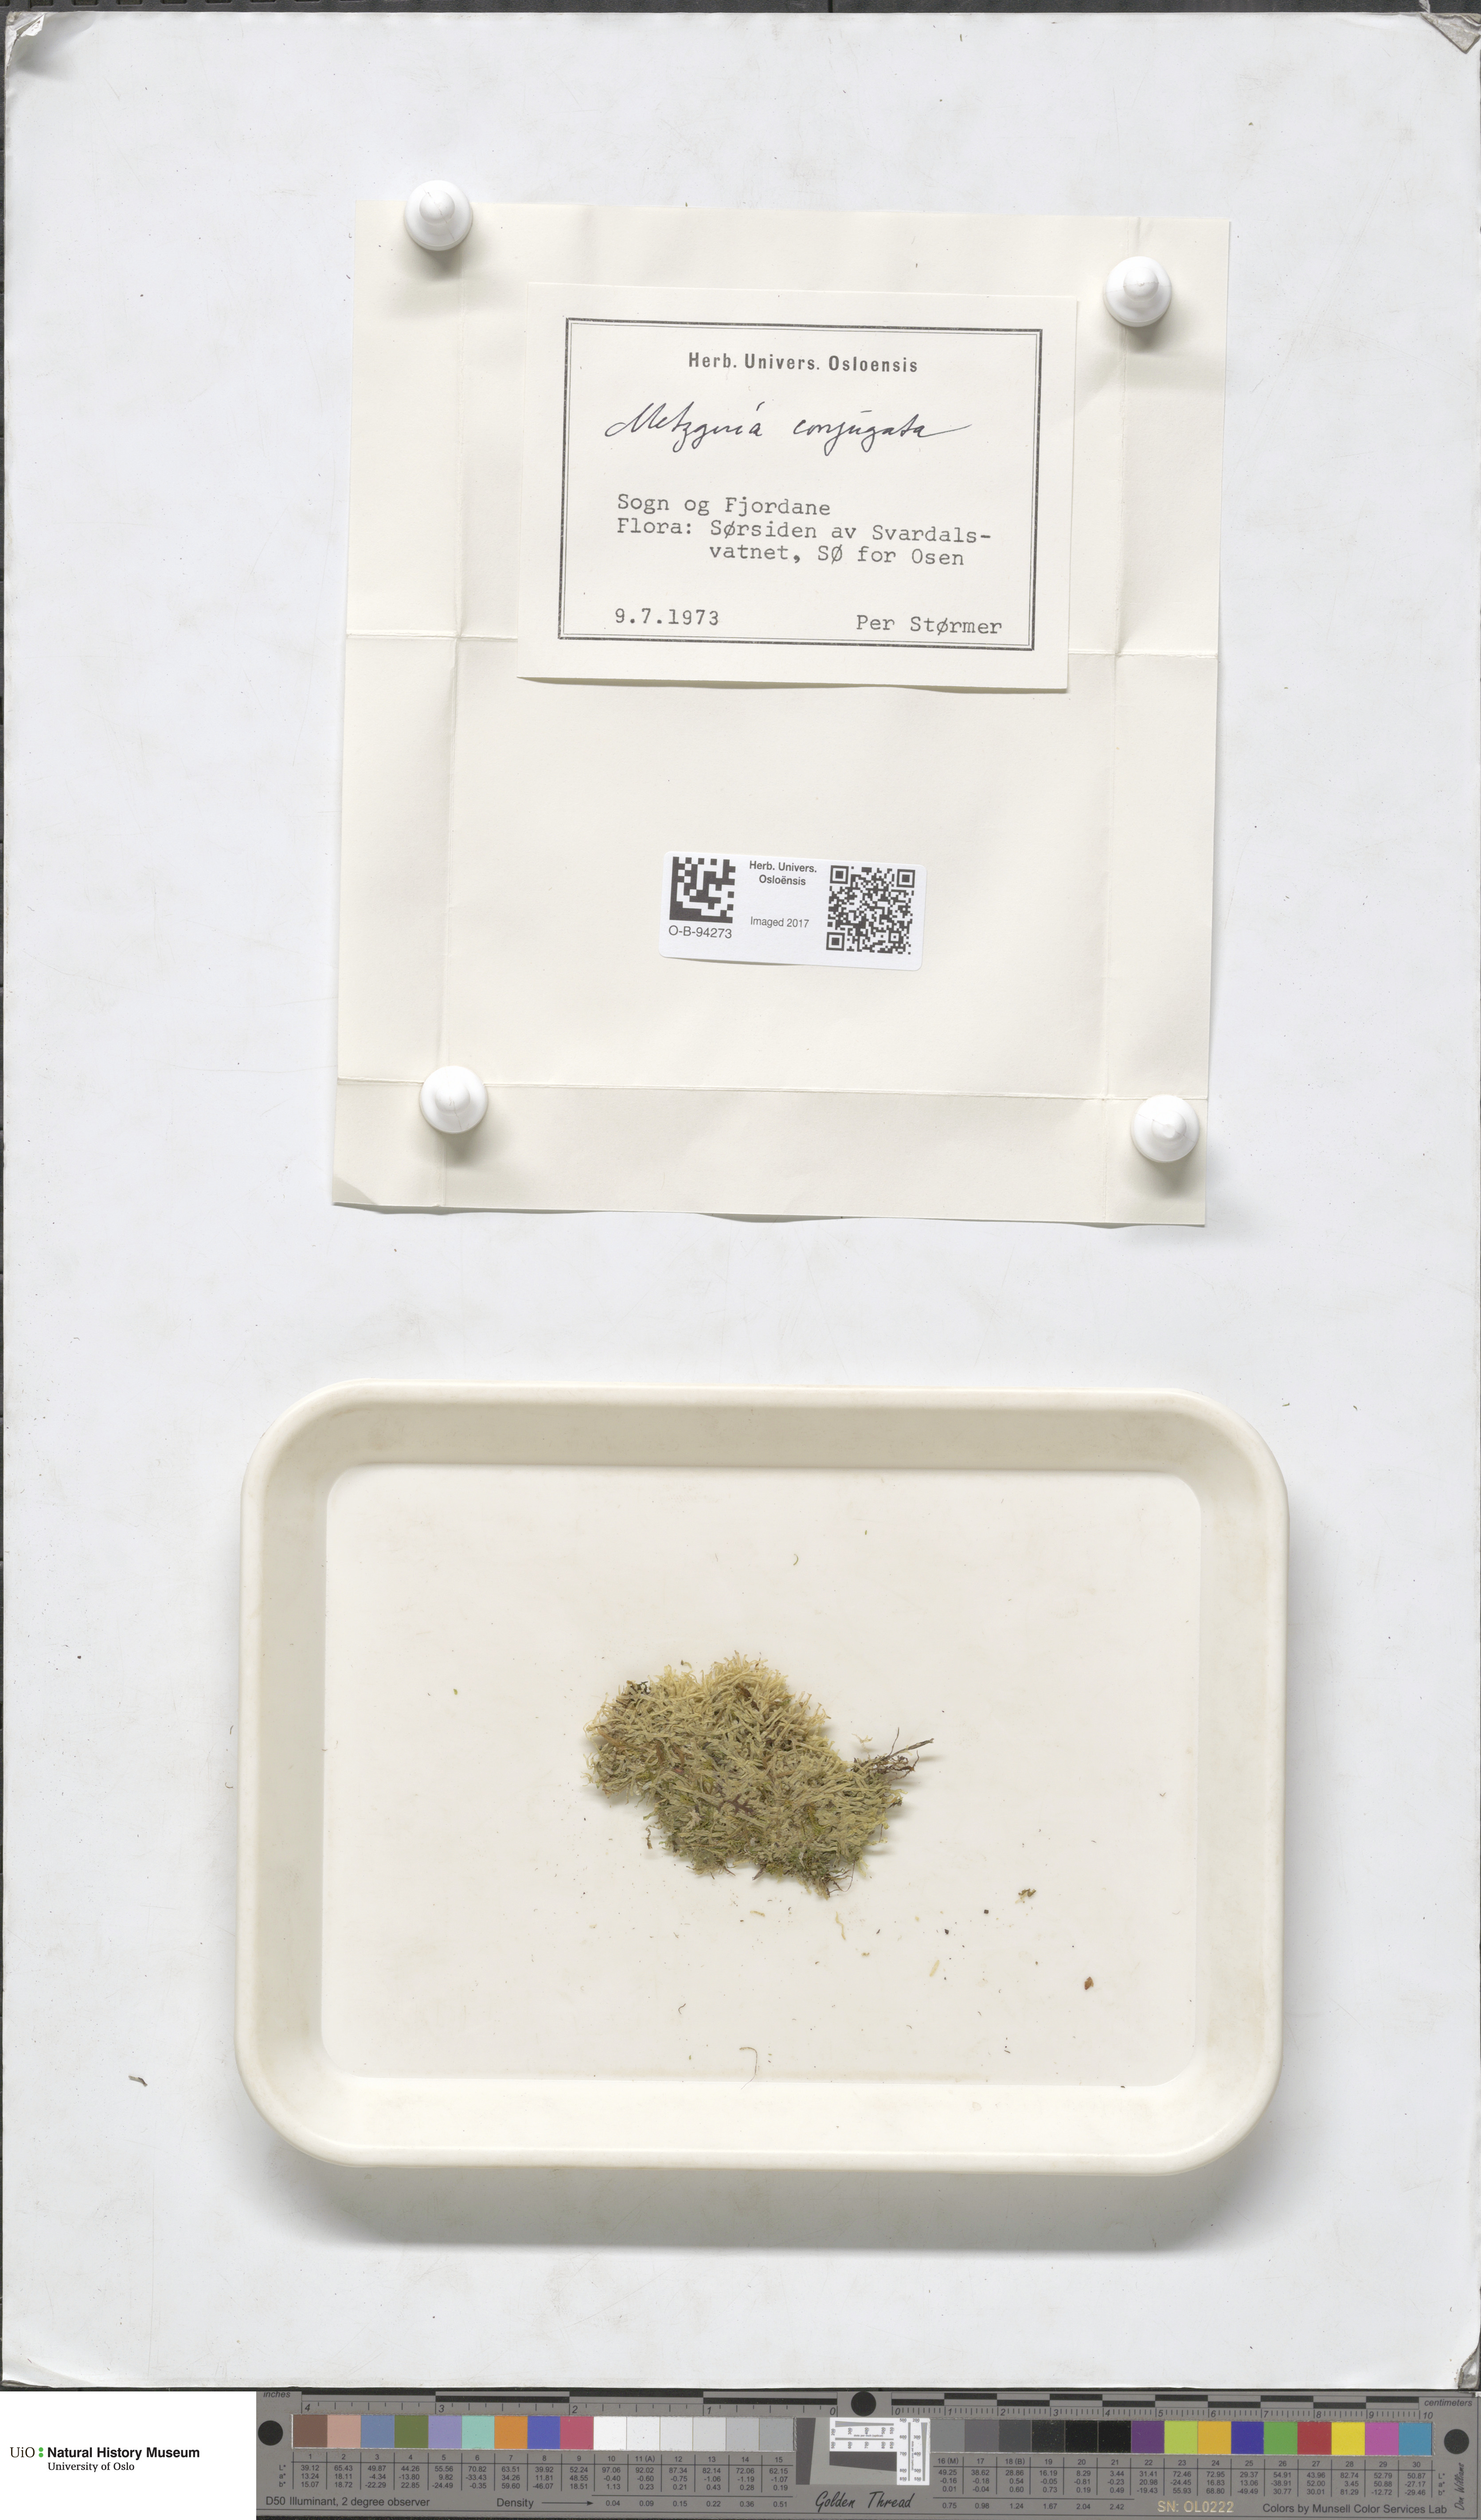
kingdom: Plantae
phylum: Marchantiophyta
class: Jungermanniopsida
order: Metzgeriales
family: Metzgeriaceae
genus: Metzgeria
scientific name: Metzgeria conjugata
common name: Rock veilwort
